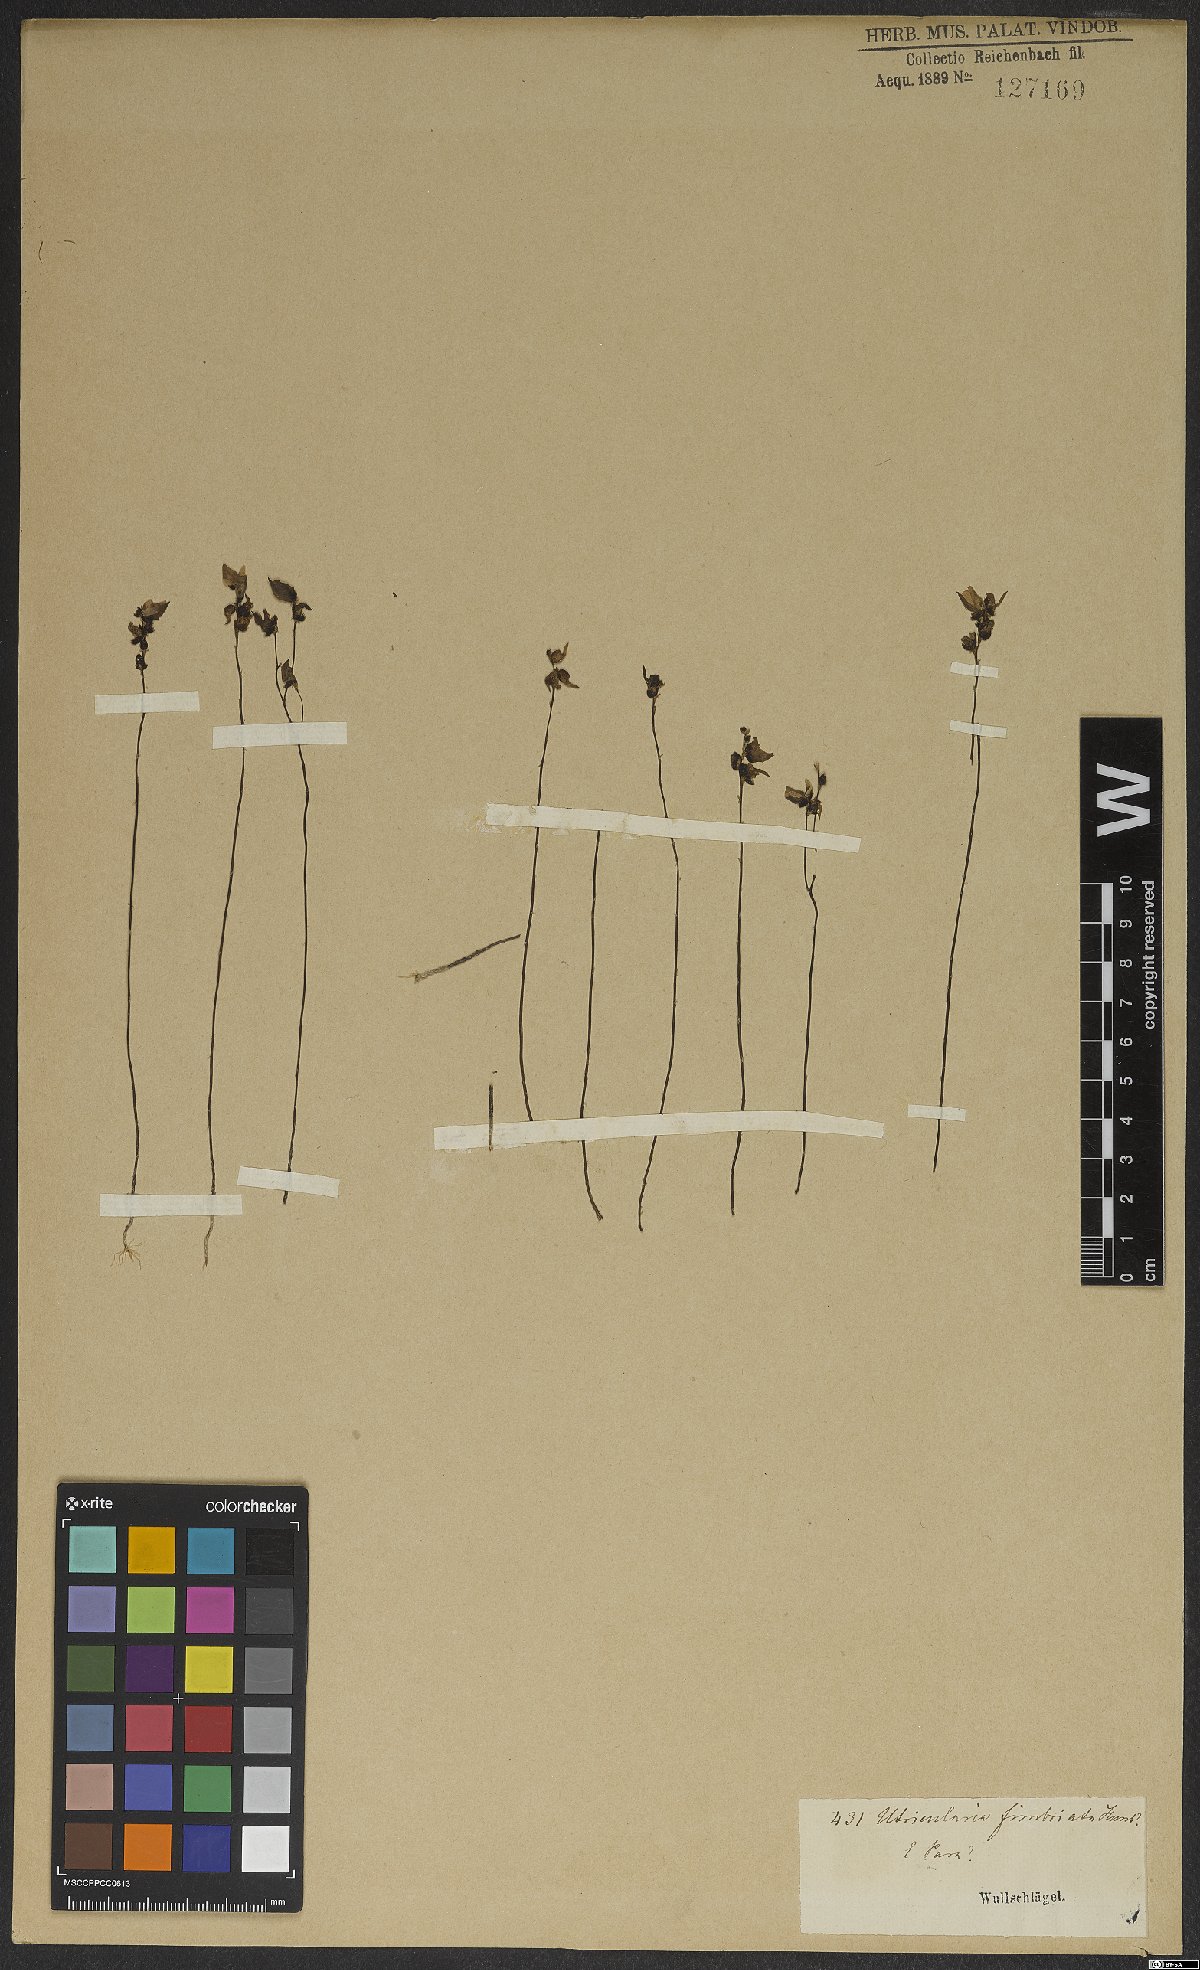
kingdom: Plantae
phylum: Tracheophyta
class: Magnoliopsida
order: Lamiales
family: Lentibulariaceae
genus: Utricularia
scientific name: Utricularia
